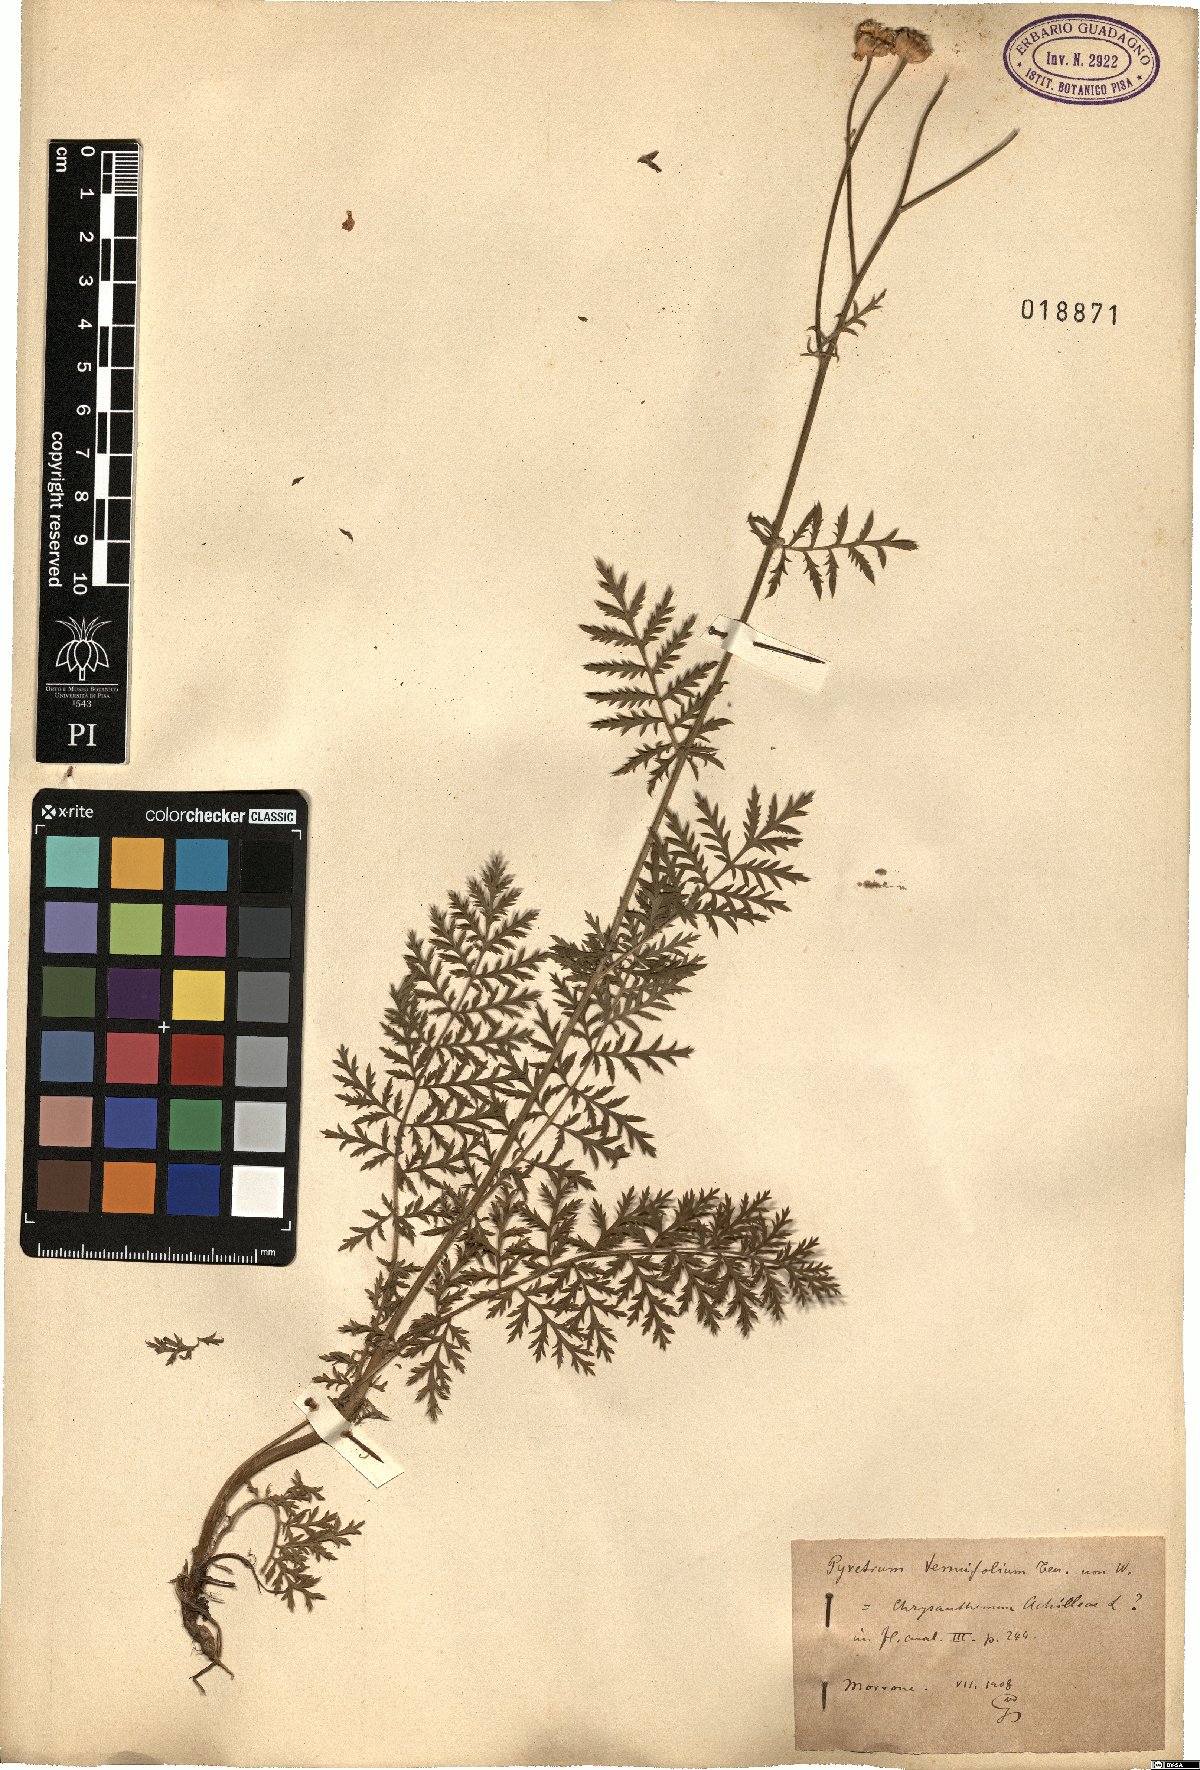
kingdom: Plantae
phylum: Tracheophyta
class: Magnoliopsida
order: Asterales
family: Asteraceae
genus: Tanacetum
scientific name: Tanacetum corymbosum
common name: Scentless feverfew
